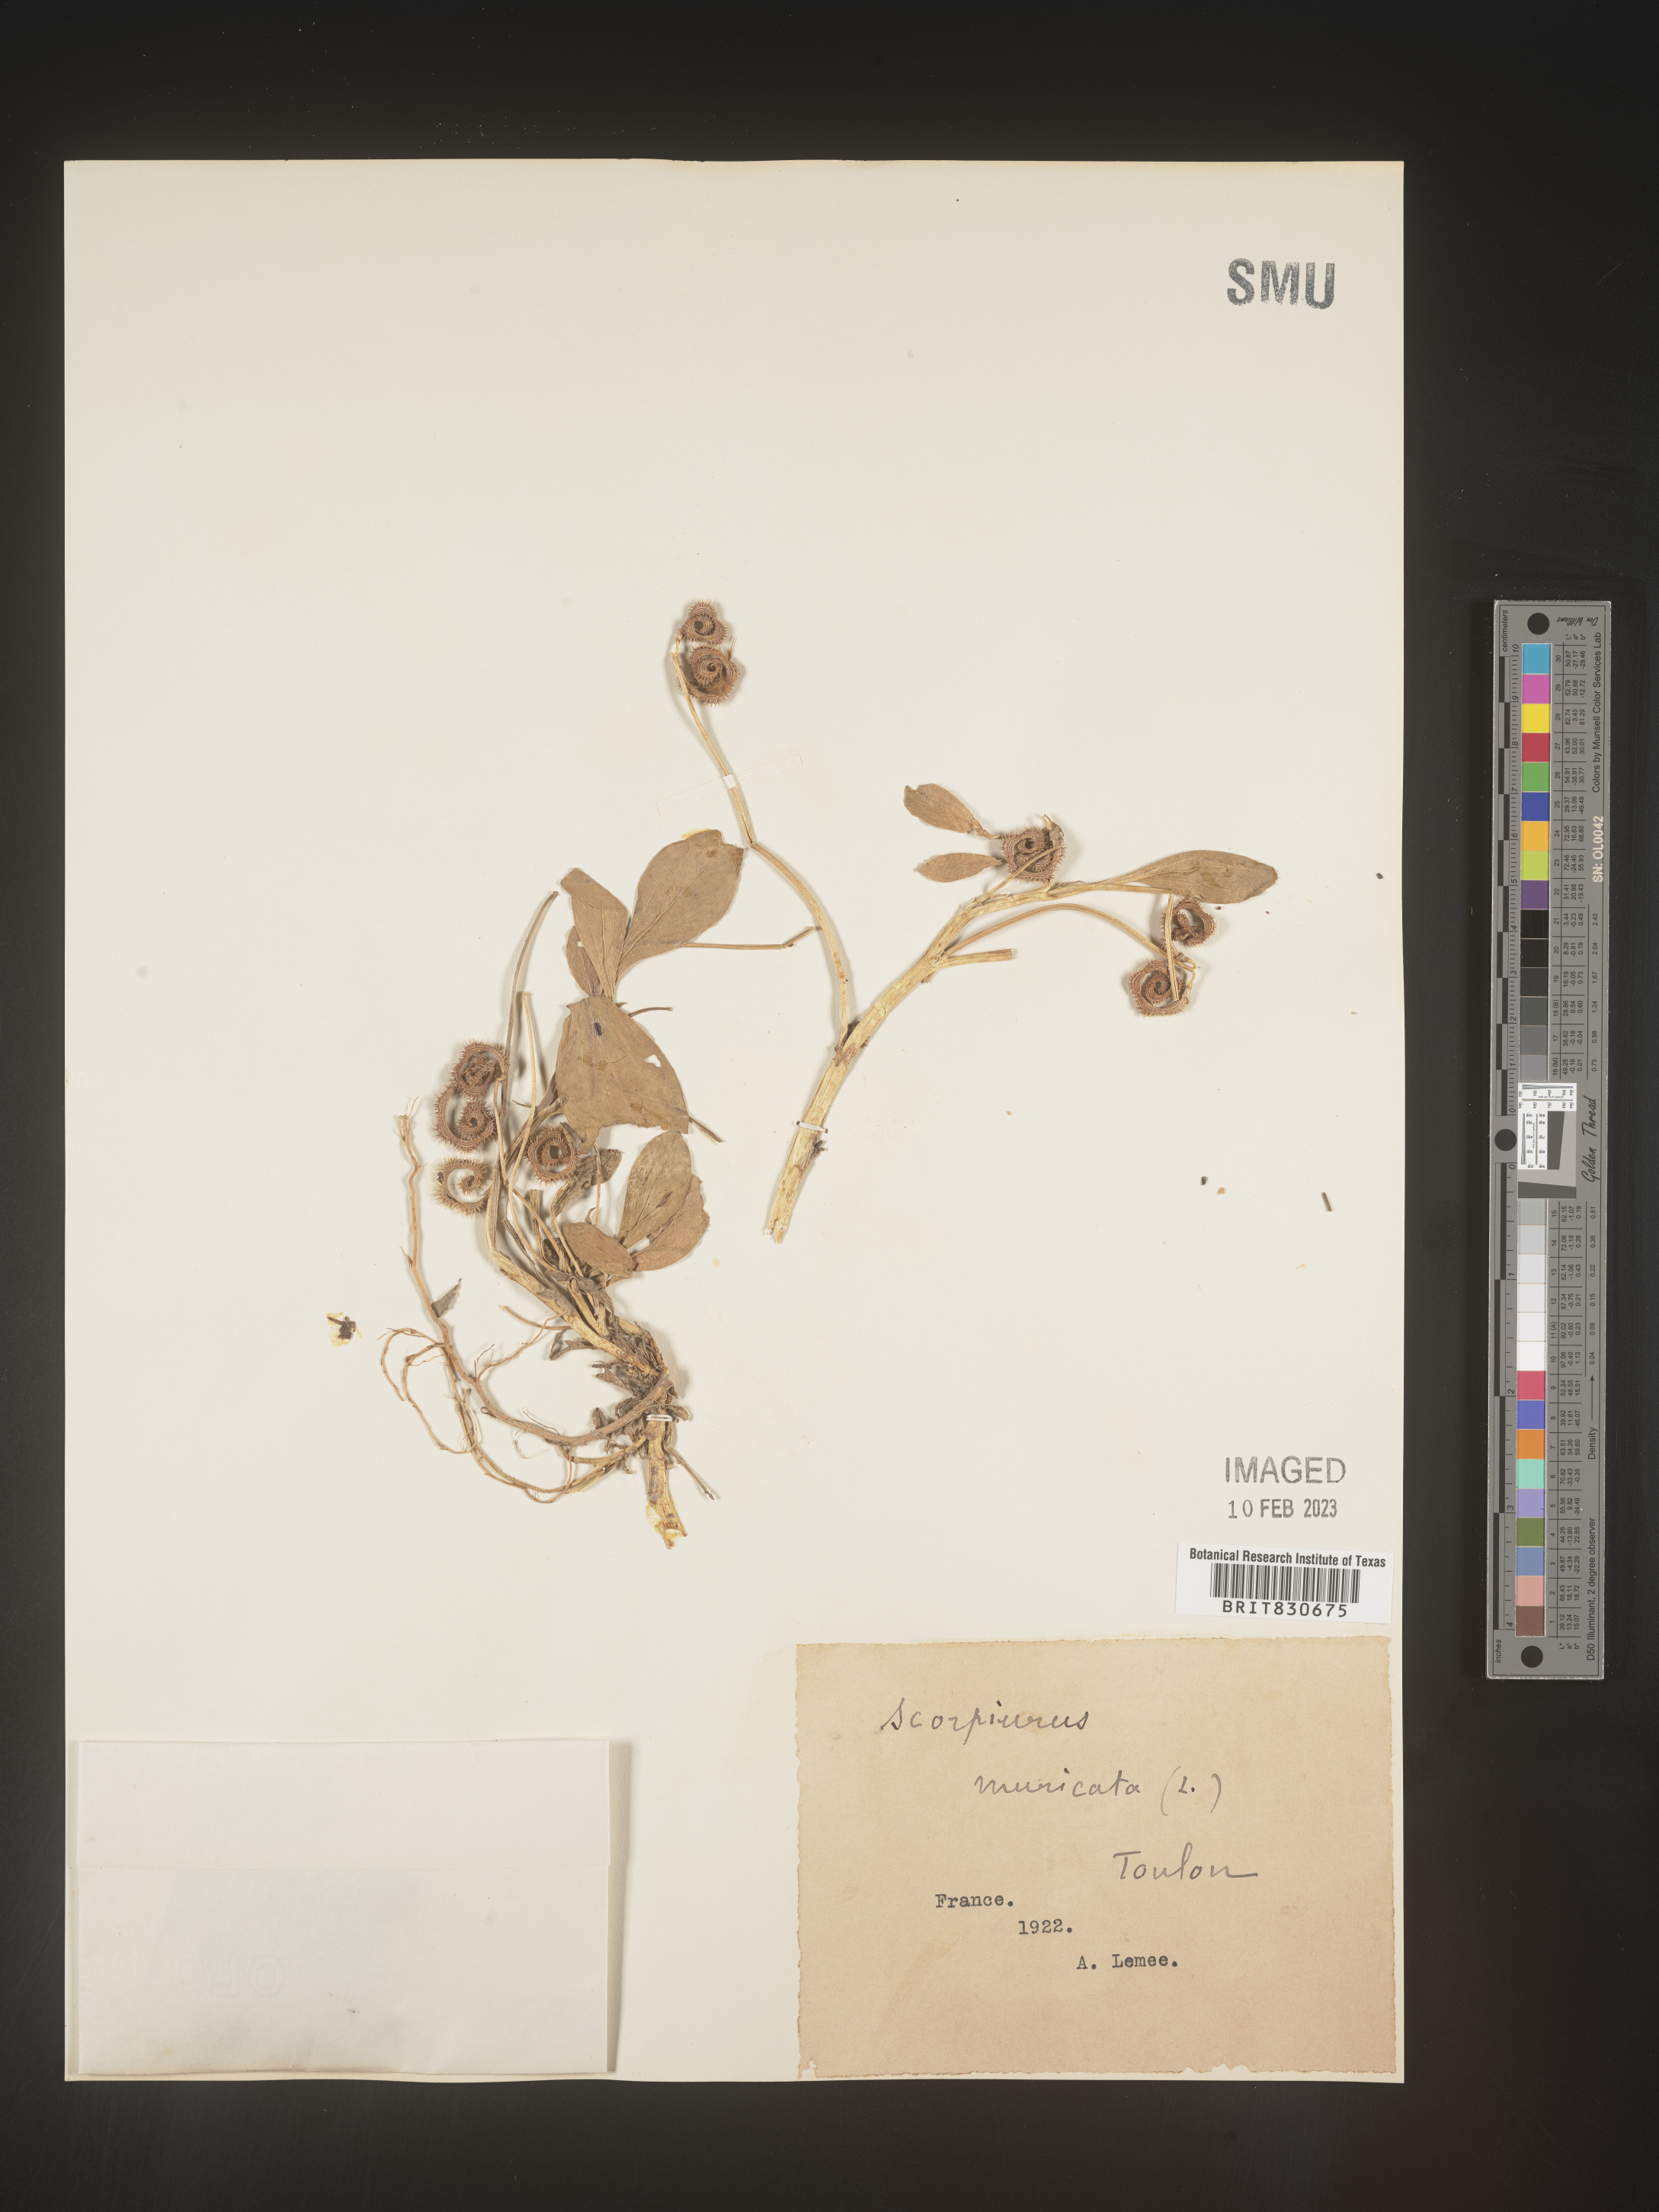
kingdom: Plantae
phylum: Tracheophyta
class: Magnoliopsida
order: Fabales
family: Fabaceae
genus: Scorpiurus
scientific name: Scorpiurus
